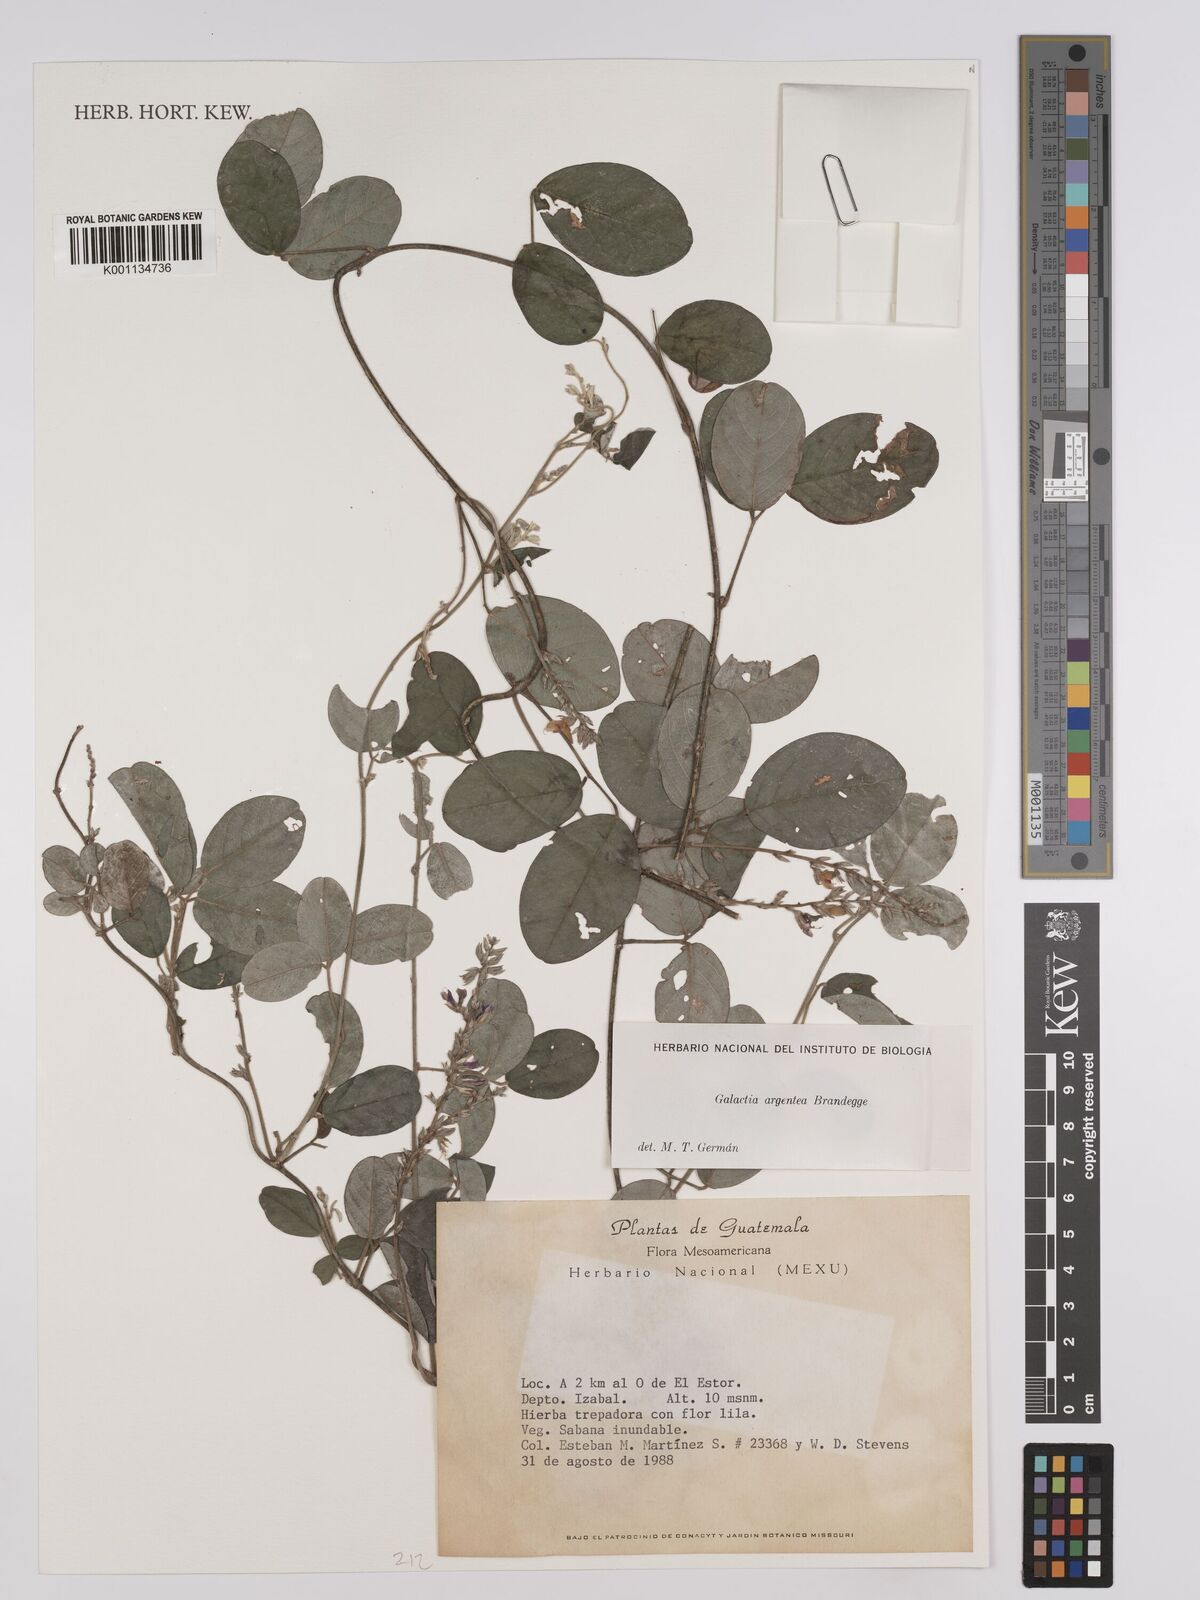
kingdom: Plantae
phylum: Tracheophyta
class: Magnoliopsida
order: Fabales
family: Fabaceae
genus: Galactia
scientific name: Galactia argentea
